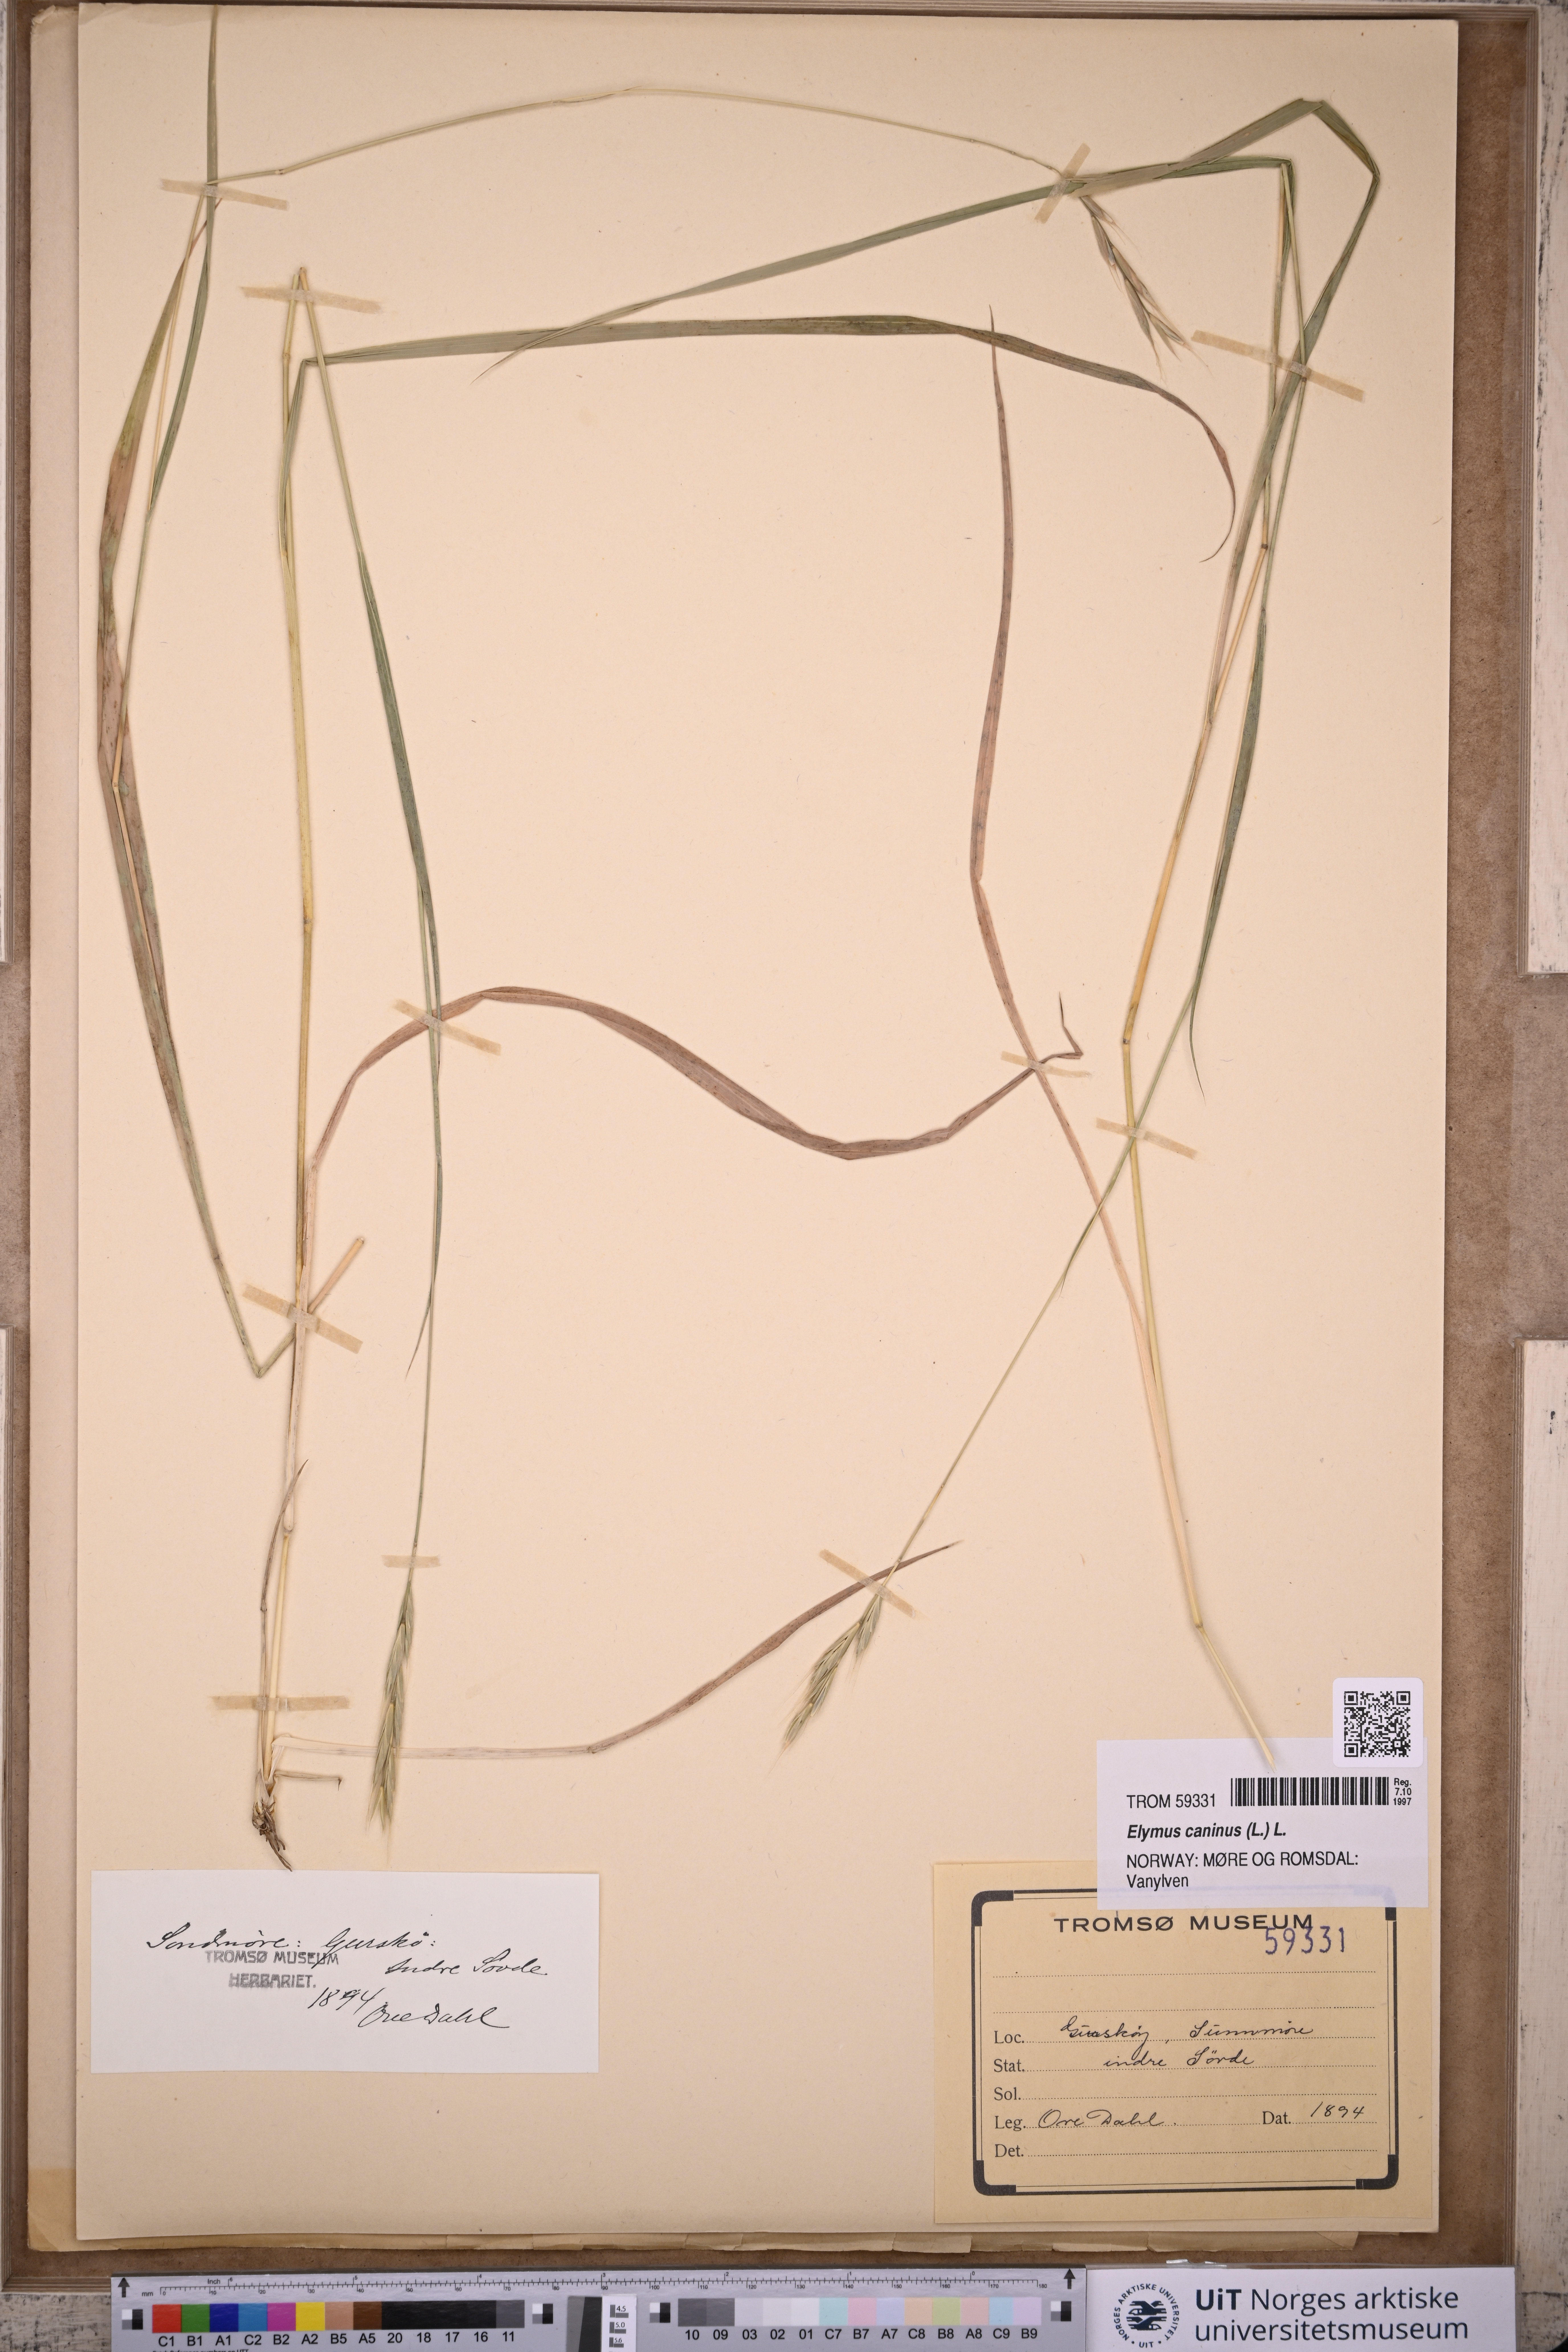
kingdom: Plantae
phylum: Tracheophyta
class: Liliopsida
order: Poales
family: Poaceae
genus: Elymus
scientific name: Elymus caninus
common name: Bearded couch
